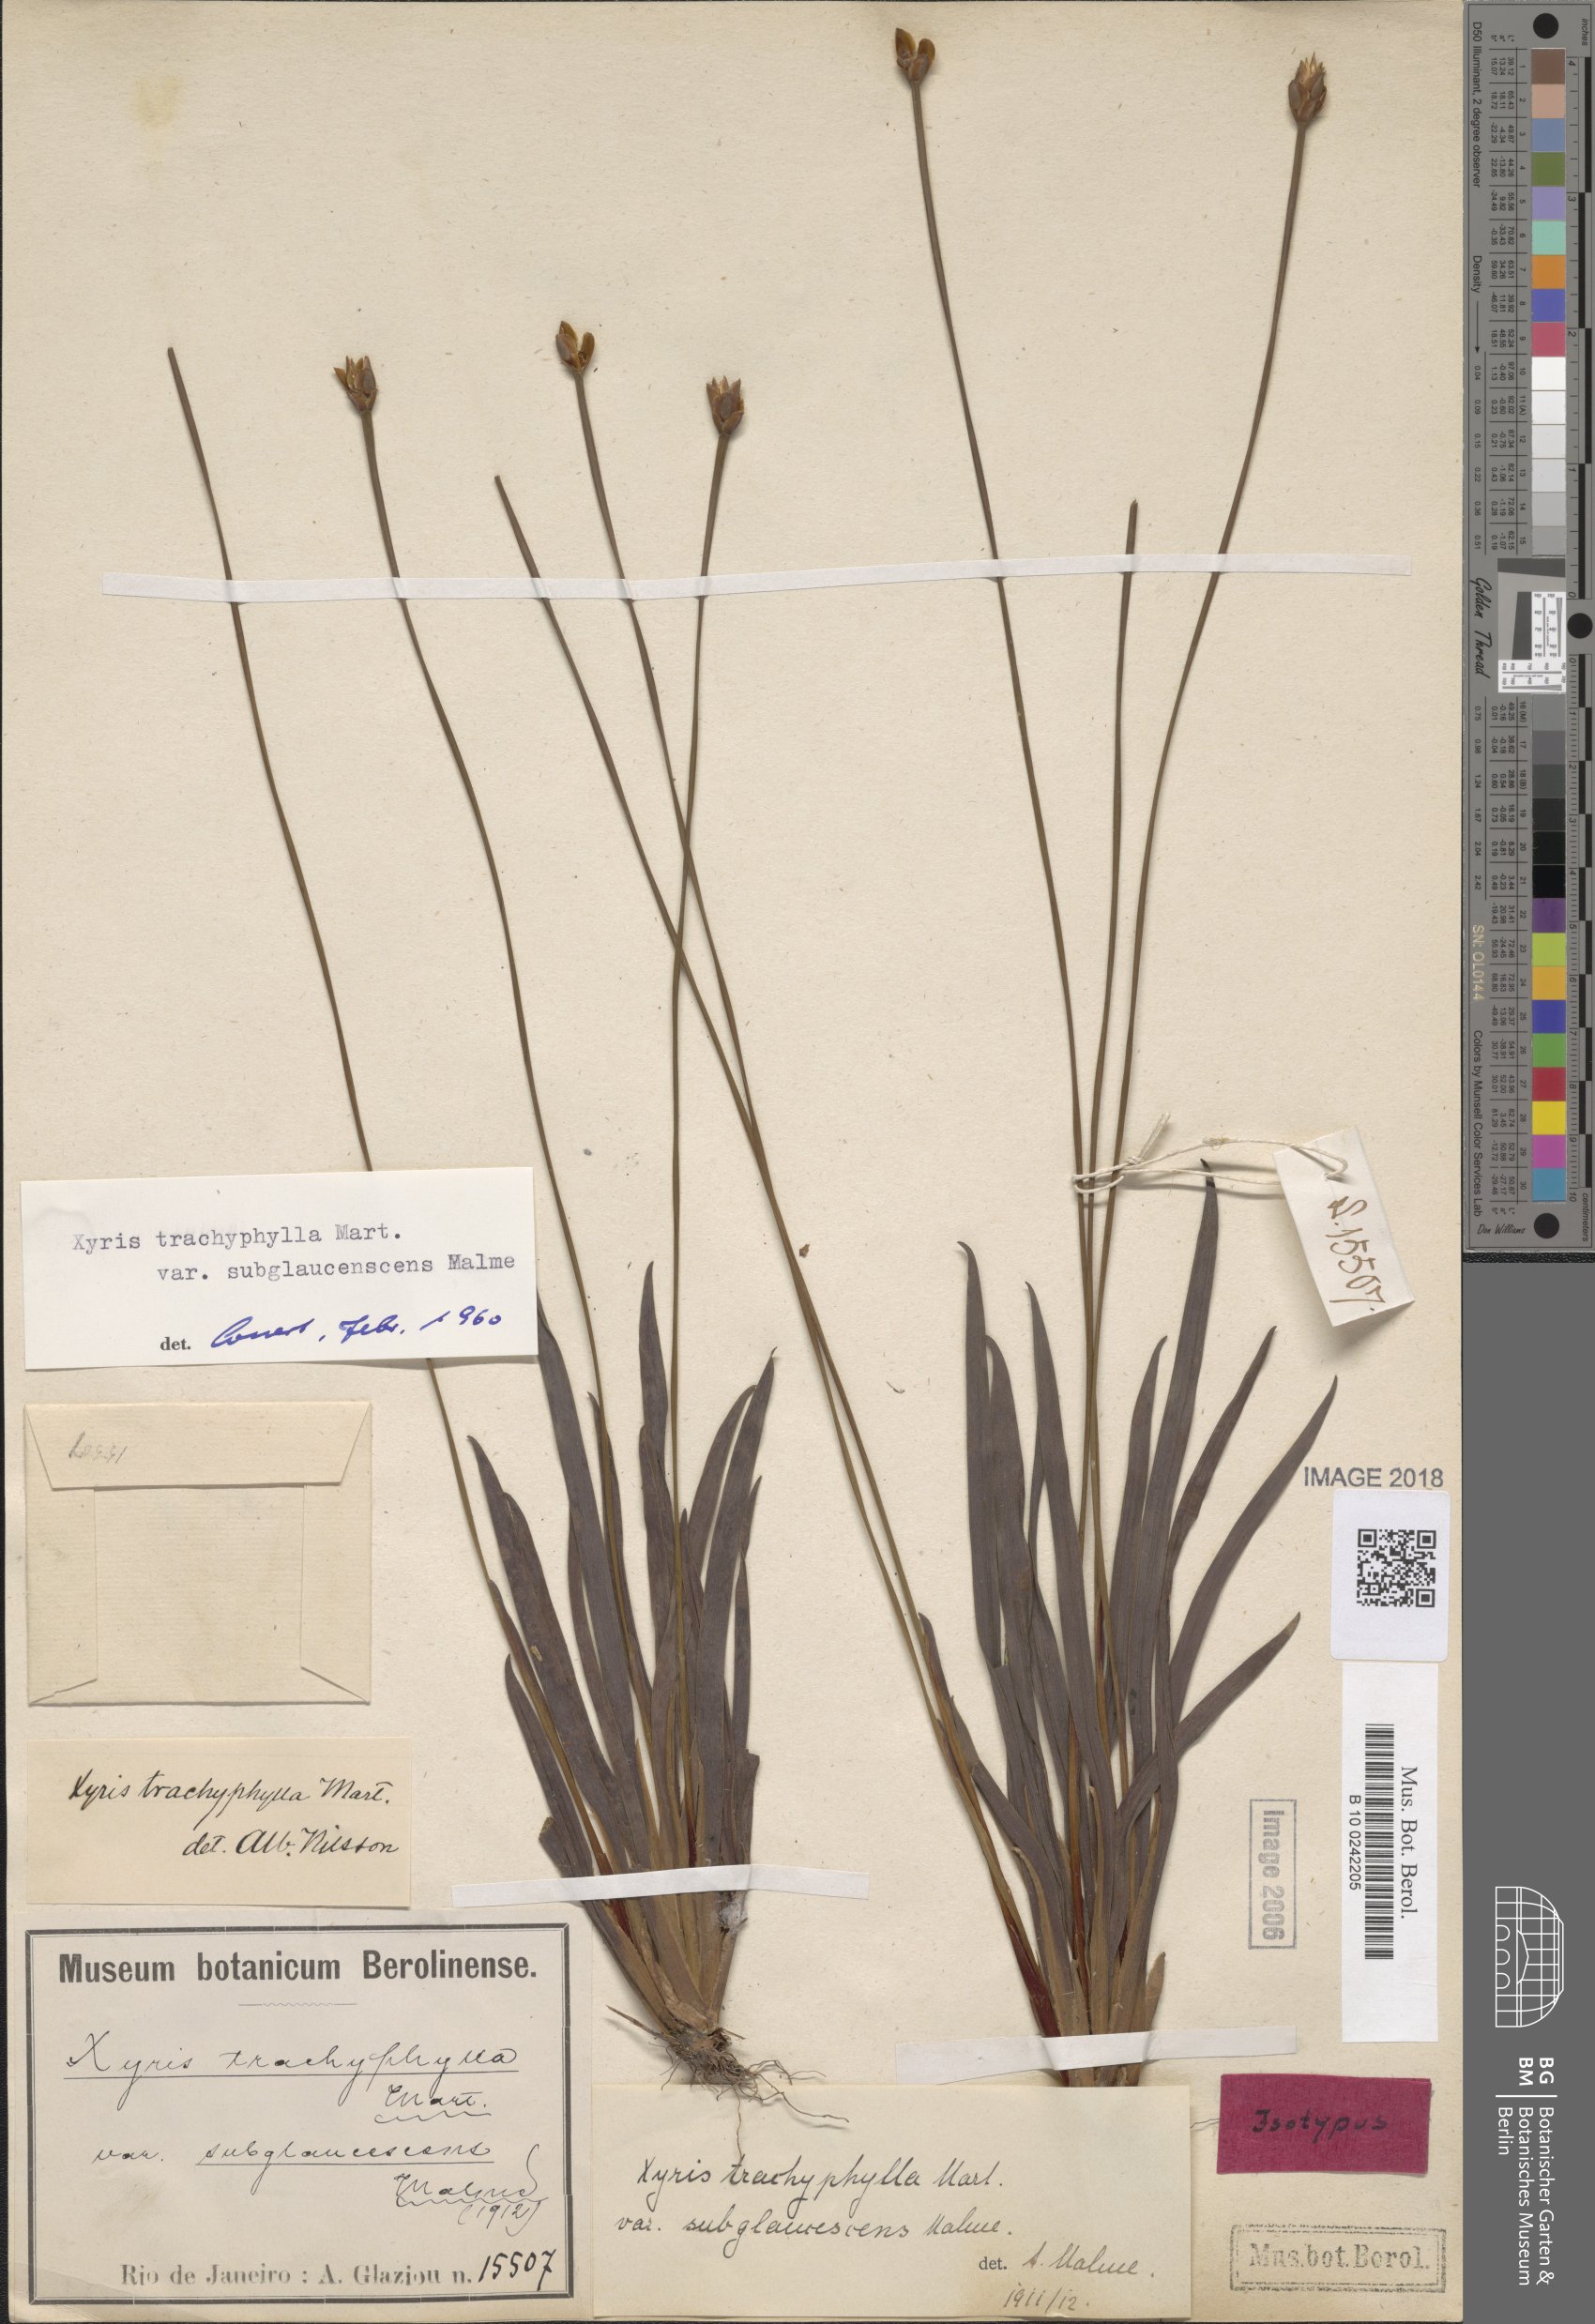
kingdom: Plantae
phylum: Tracheophyta
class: Liliopsida
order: Poales
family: Xyridaceae
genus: Xyris
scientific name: Xyris trachyphylla
